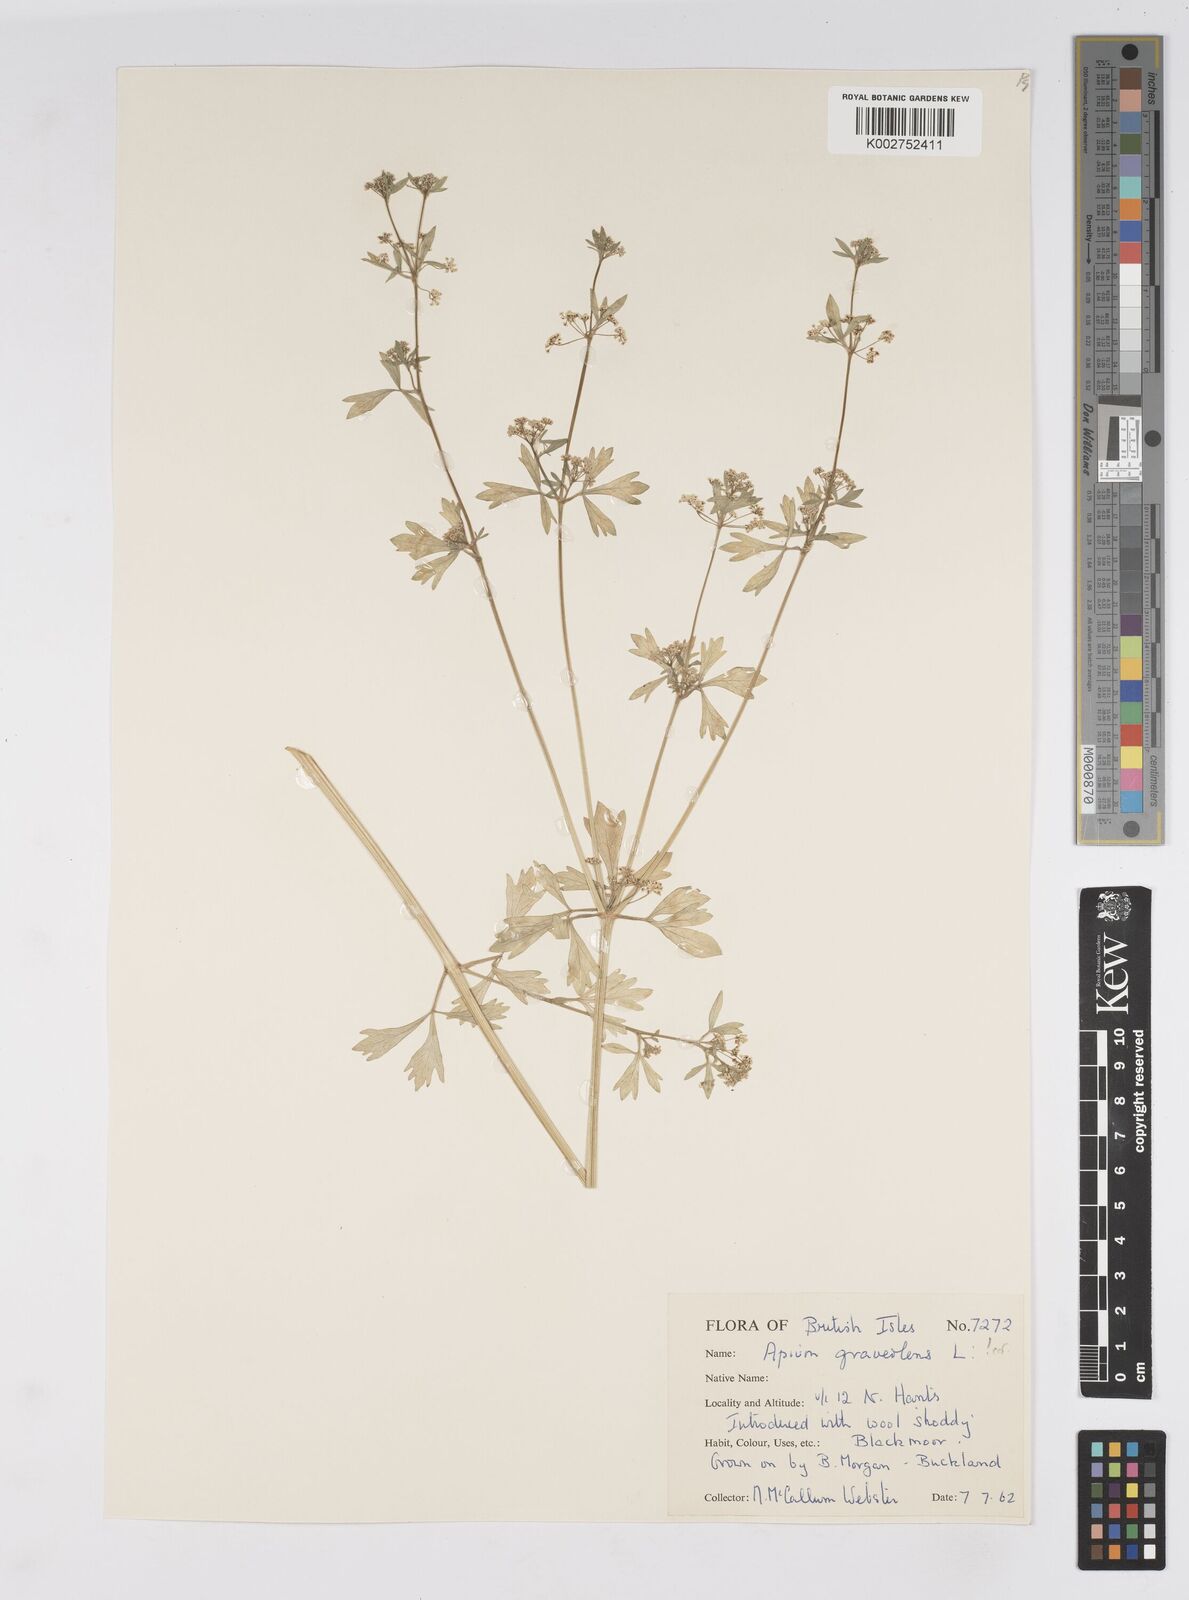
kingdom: Plantae
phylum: Tracheophyta
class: Magnoliopsida
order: Apiales
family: Apiaceae
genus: Apium
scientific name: Apium graveolens
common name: Wild celery
